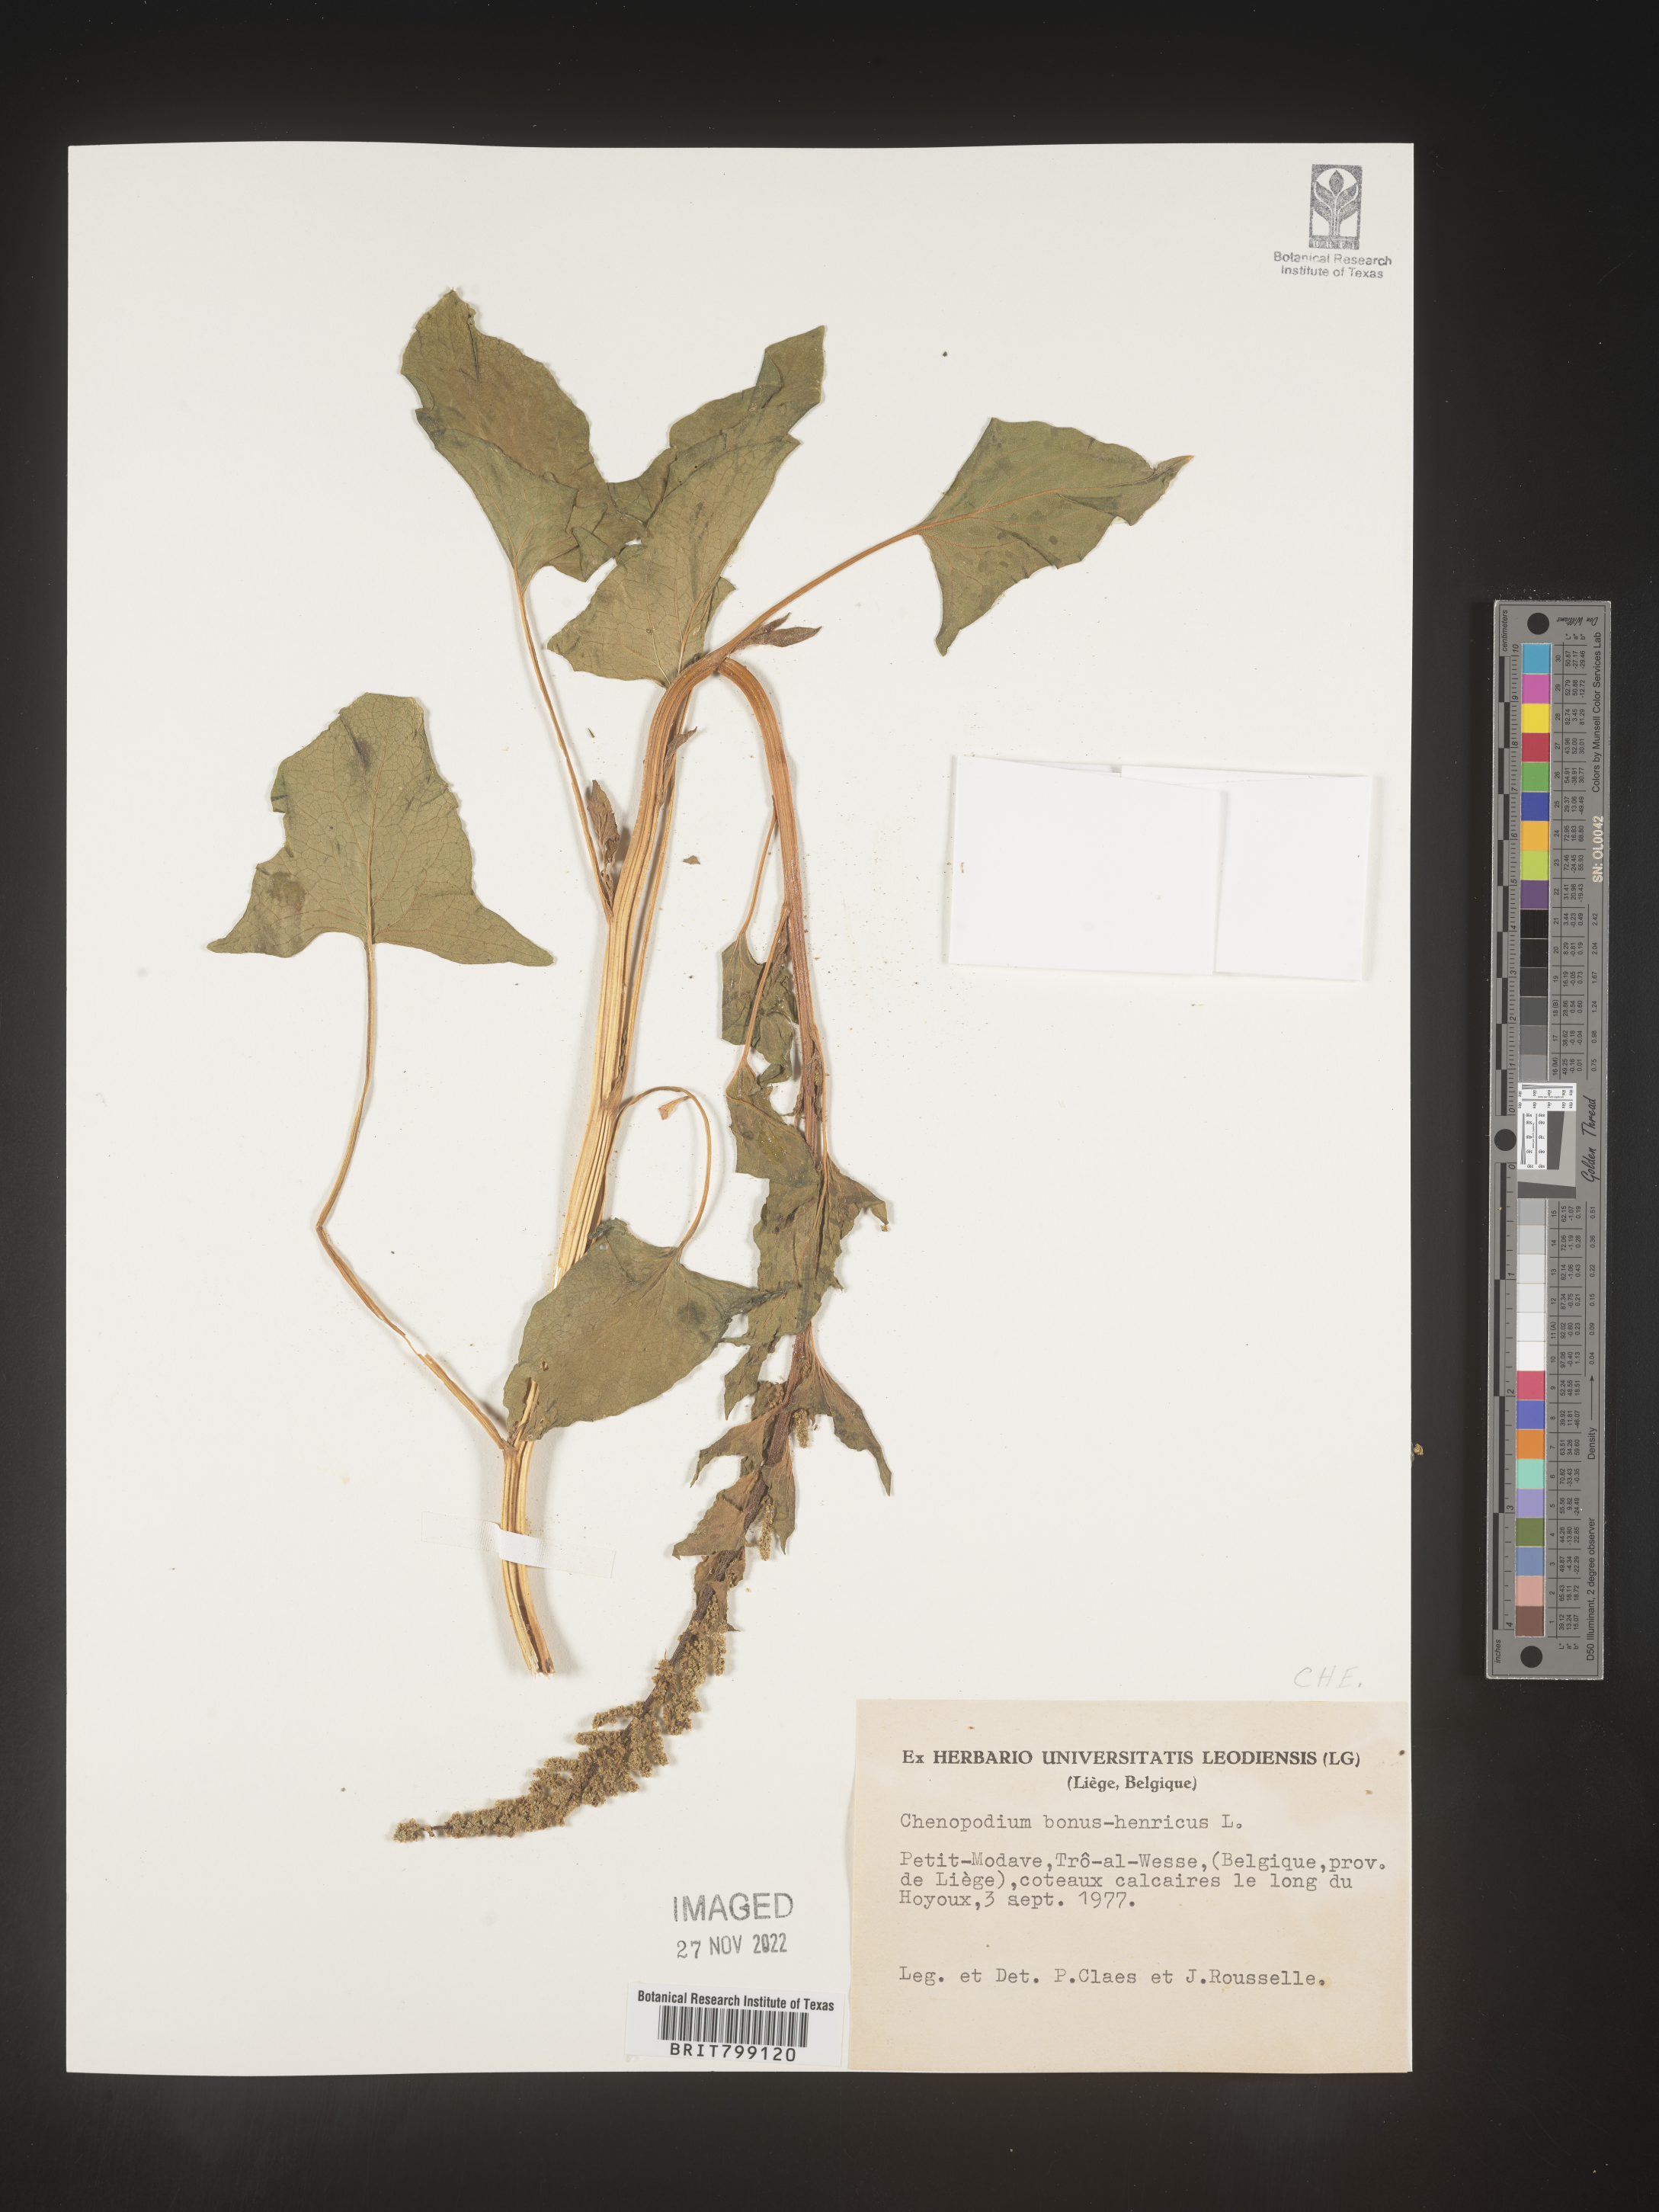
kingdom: Plantae
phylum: Tracheophyta
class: Magnoliopsida
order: Caryophyllales
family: Amaranthaceae
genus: Blitum
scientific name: Blitum bonus-henricus
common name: Good king henry
